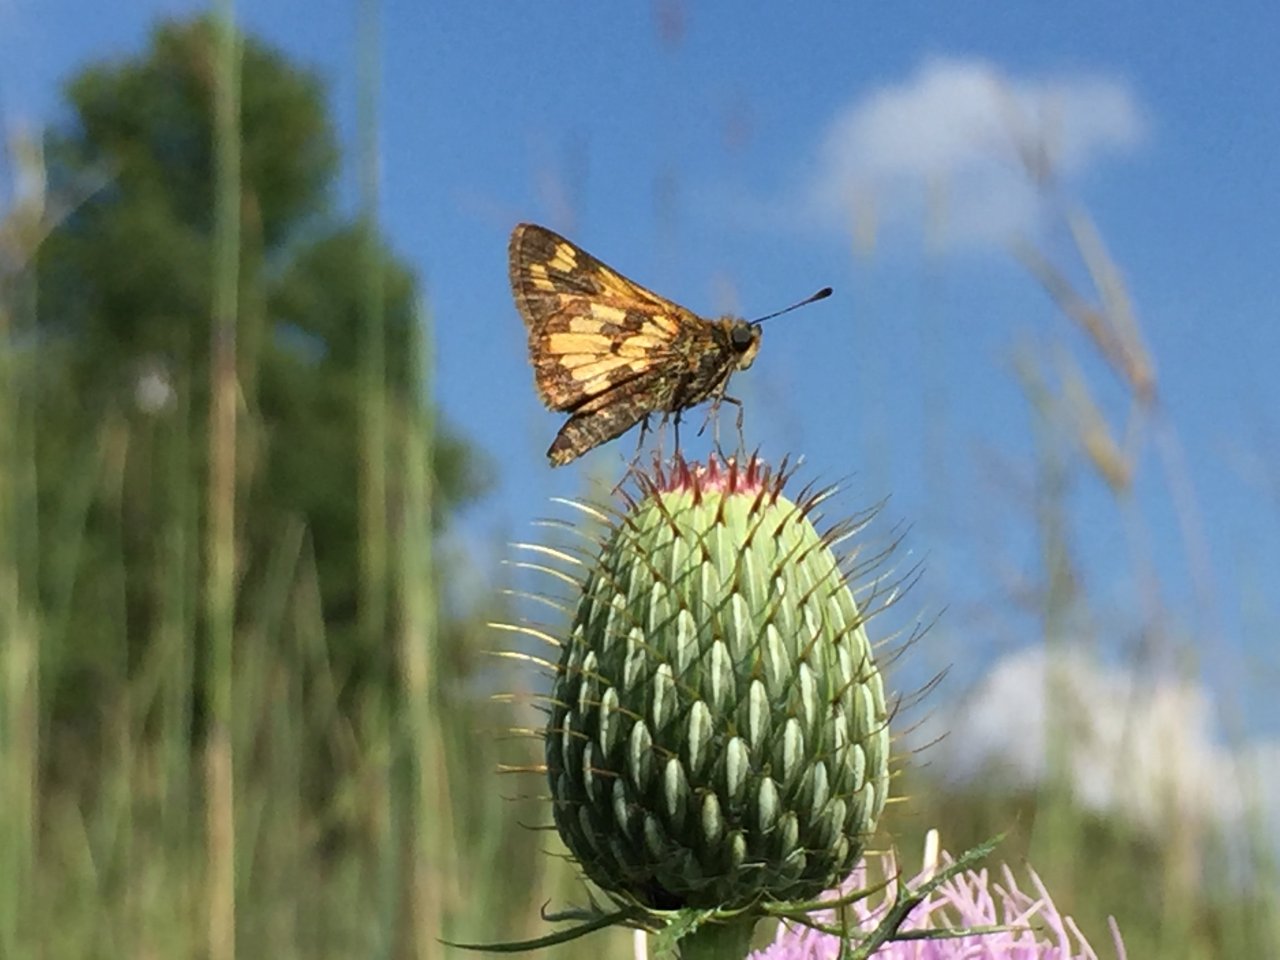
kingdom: Animalia
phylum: Arthropoda
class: Insecta
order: Lepidoptera
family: Hesperiidae
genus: Polites
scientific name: Polites coras
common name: Peck's Skipper
